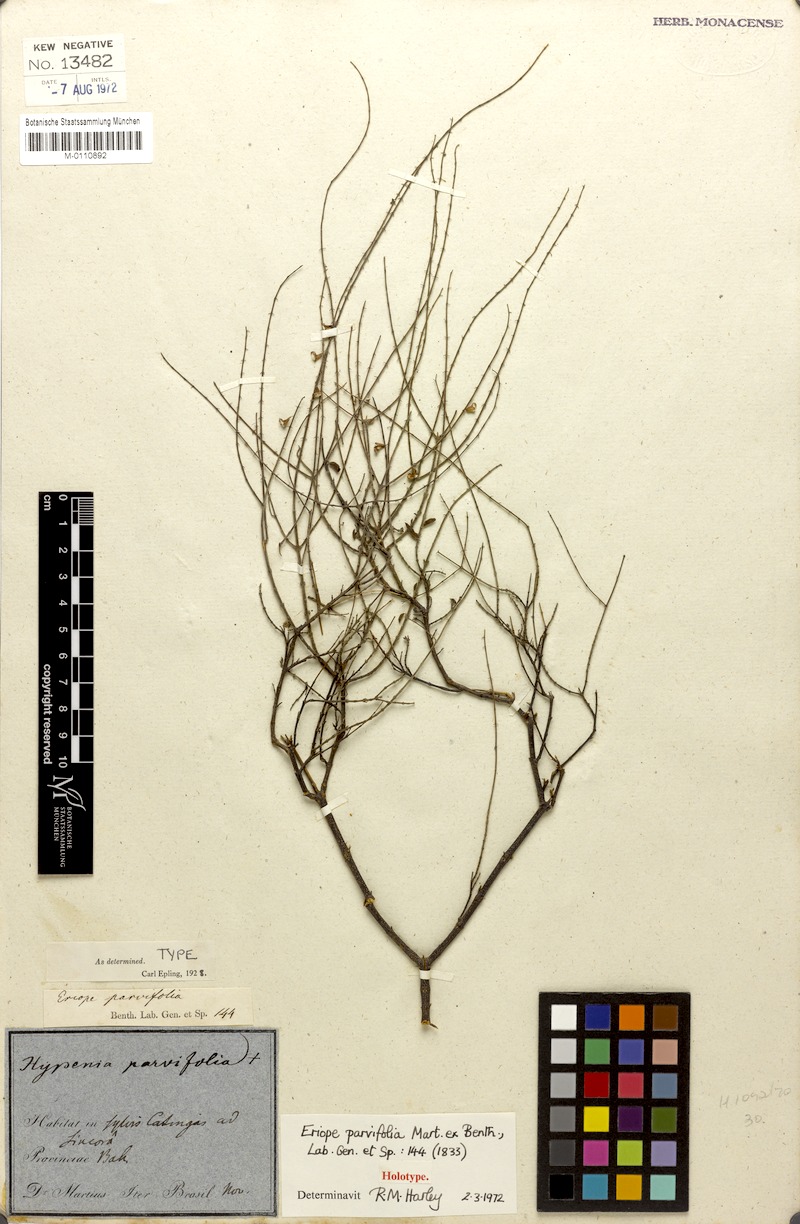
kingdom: Plantae
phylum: Tracheophyta
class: Magnoliopsida
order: Lamiales
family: Lamiaceae
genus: Eriope
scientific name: Eriope parvifolia
